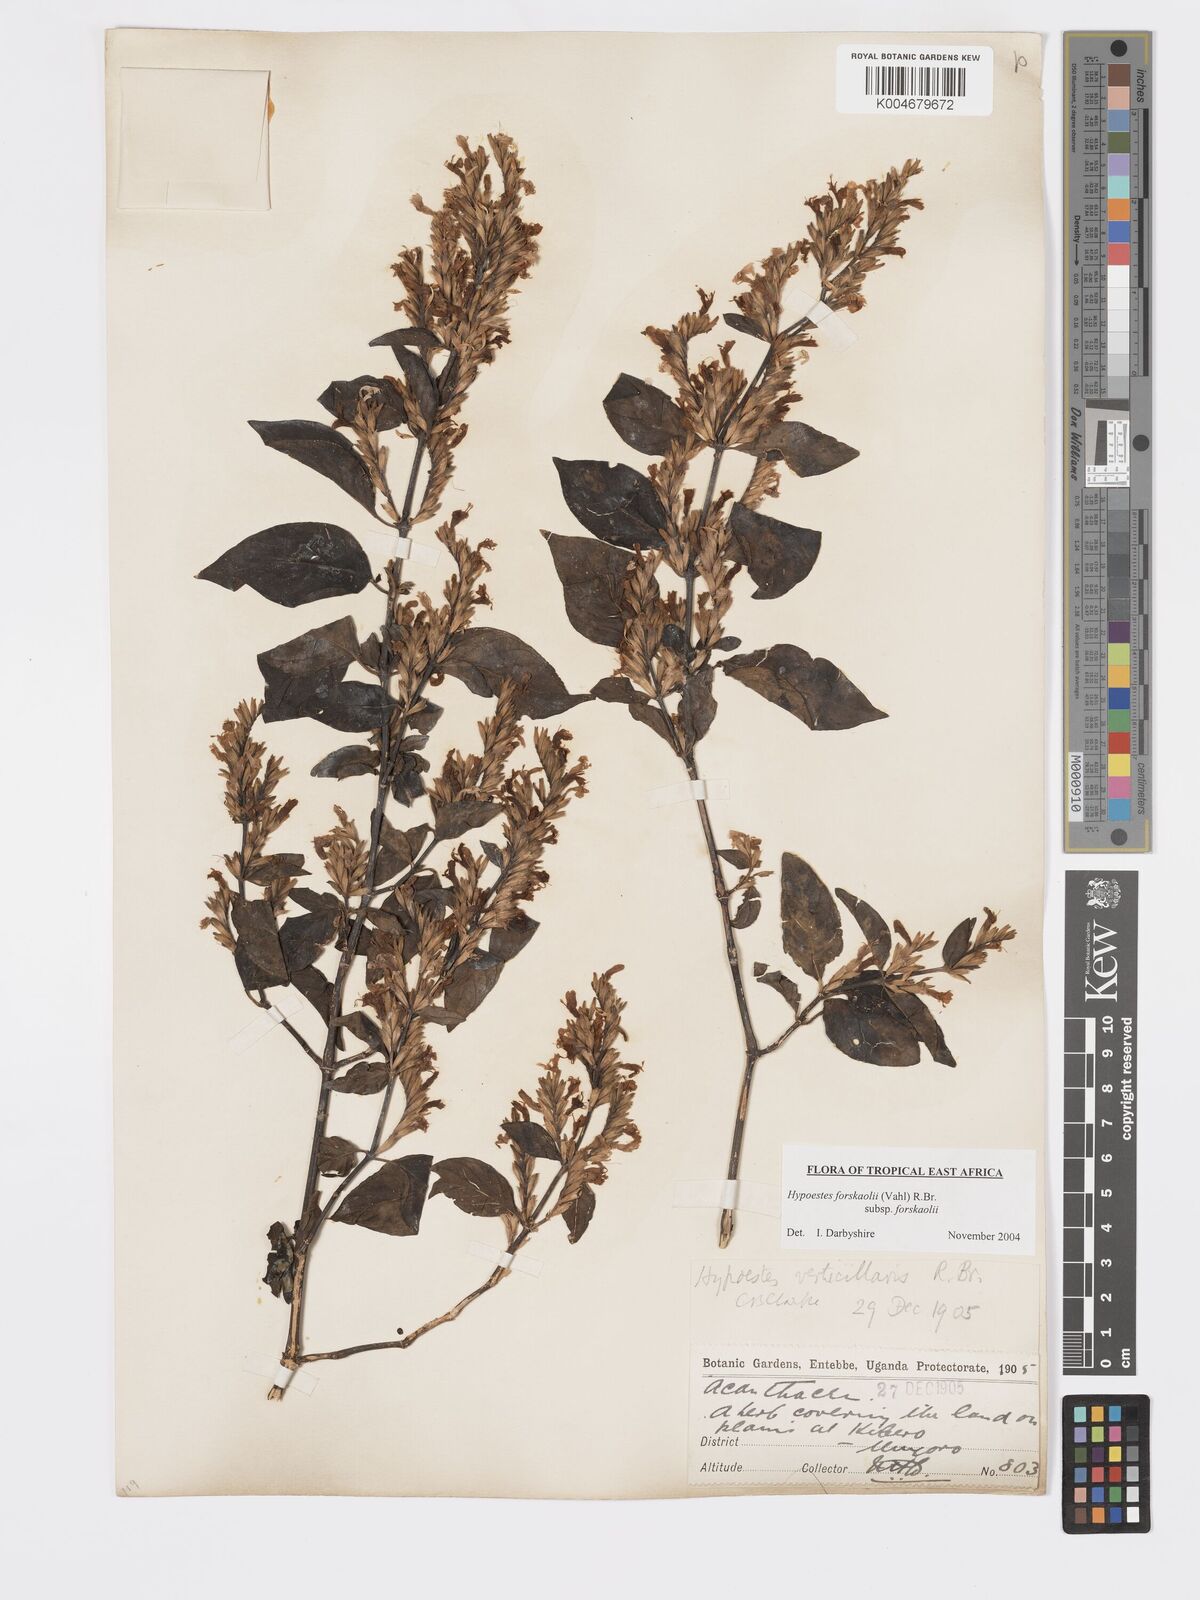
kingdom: Plantae
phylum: Tracheophyta
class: Magnoliopsida
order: Lamiales
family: Acanthaceae
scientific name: Acanthaceae
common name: Acanthaceae
